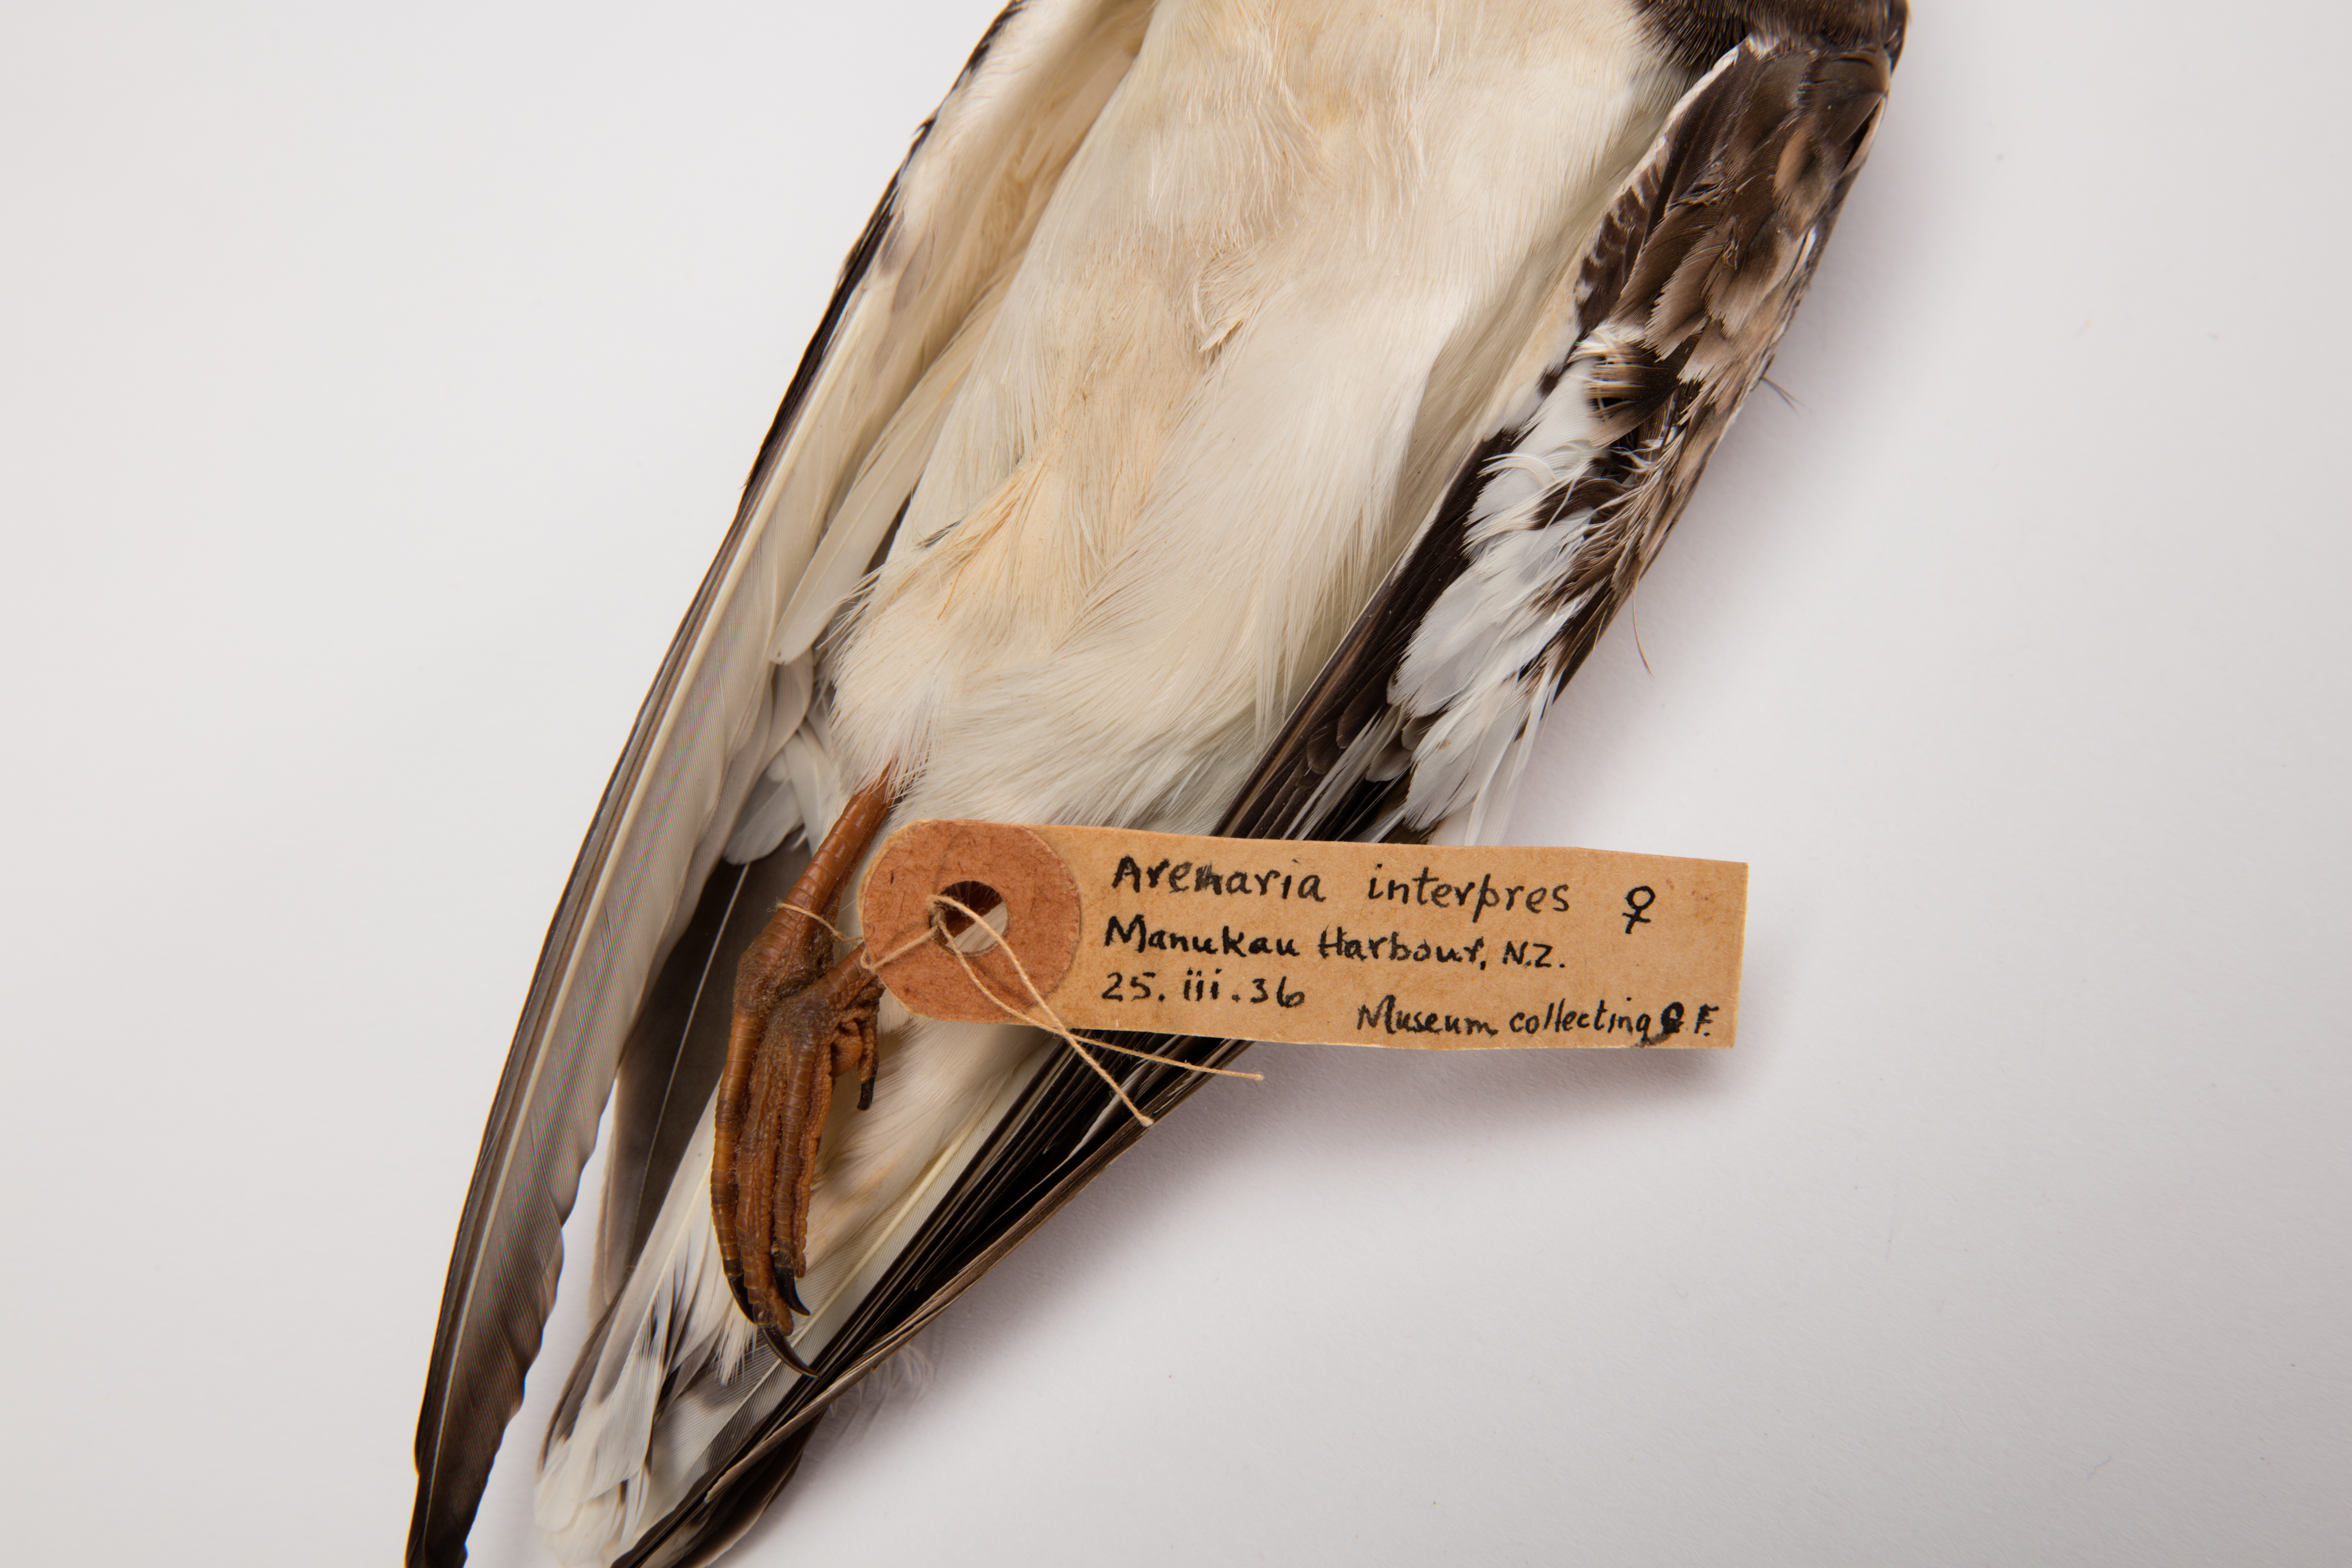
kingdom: Animalia
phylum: Chordata
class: Aves
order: Charadriiformes
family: Scolopacidae
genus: Arenaria
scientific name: Arenaria interpres
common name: Ruddy turnstone
